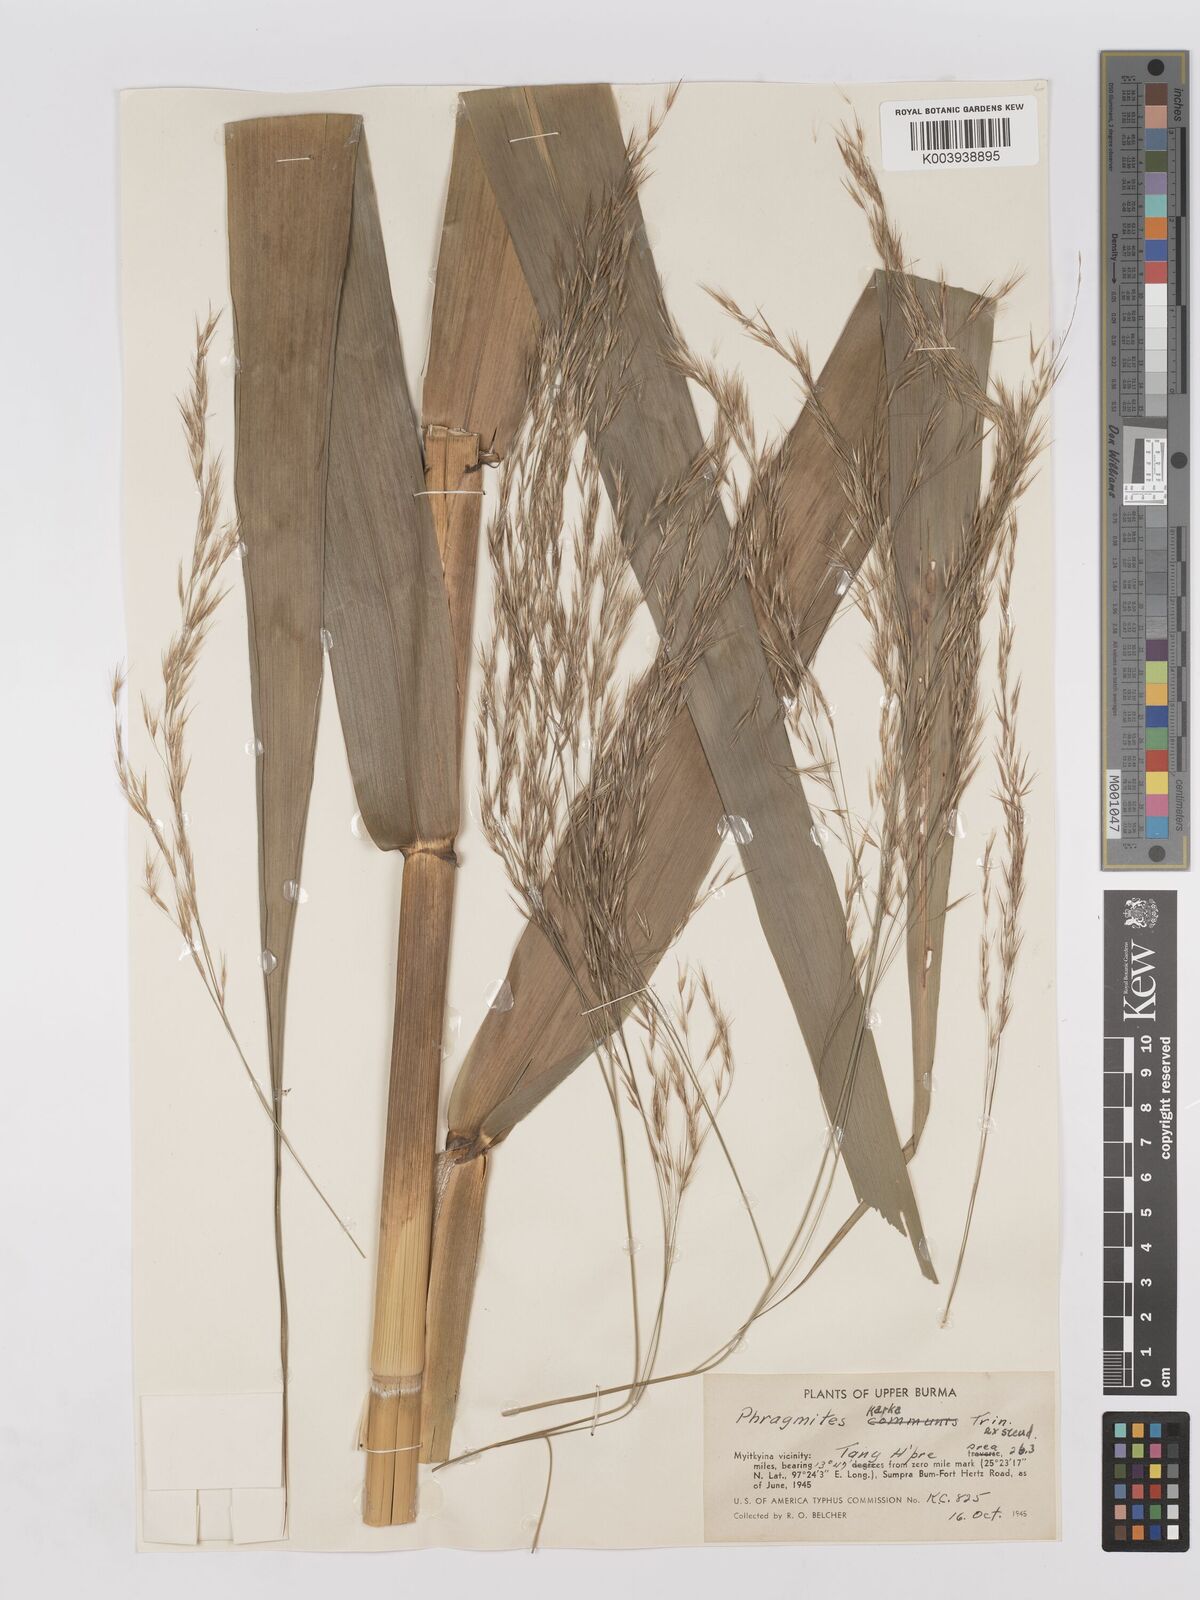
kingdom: Plantae
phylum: Tracheophyta
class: Liliopsida
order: Poales
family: Poaceae
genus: Phragmites
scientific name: Phragmites karka
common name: Tropical reed
